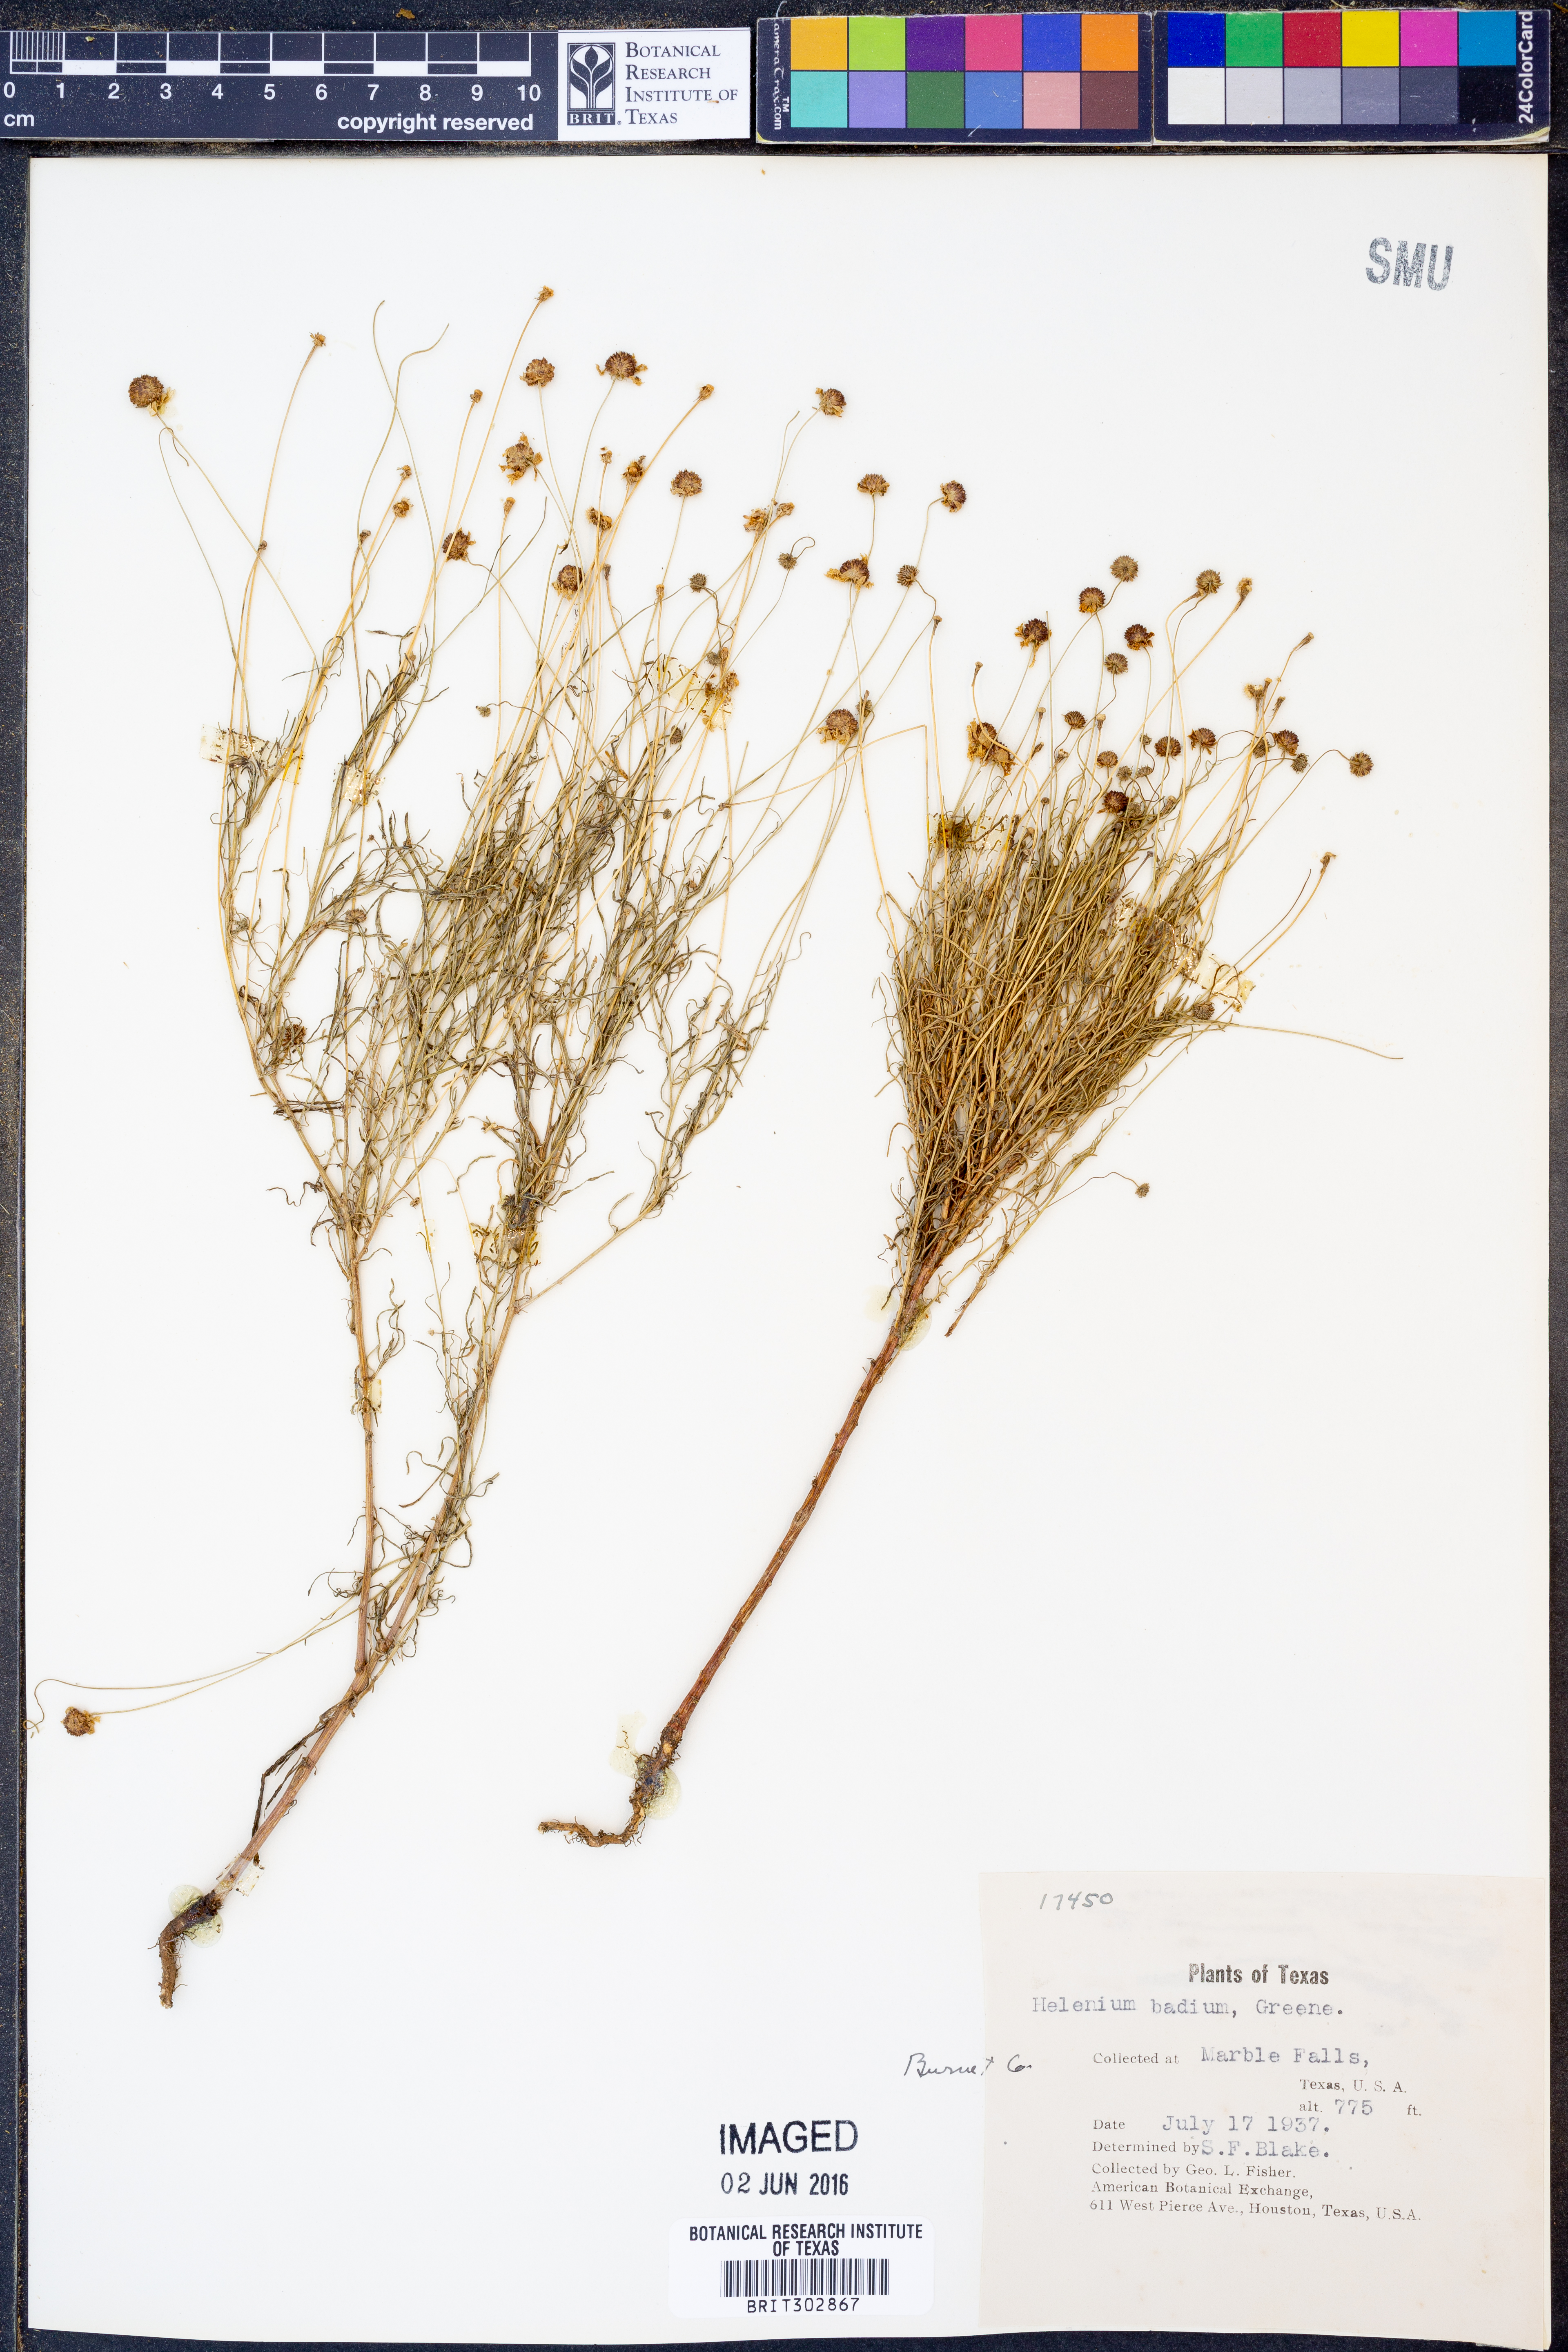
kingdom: Plantae
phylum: Tracheophyta
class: Magnoliopsida
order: Asterales
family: Asteraceae
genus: Helenium
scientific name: Helenium amarum
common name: Bitter sneezeweed
